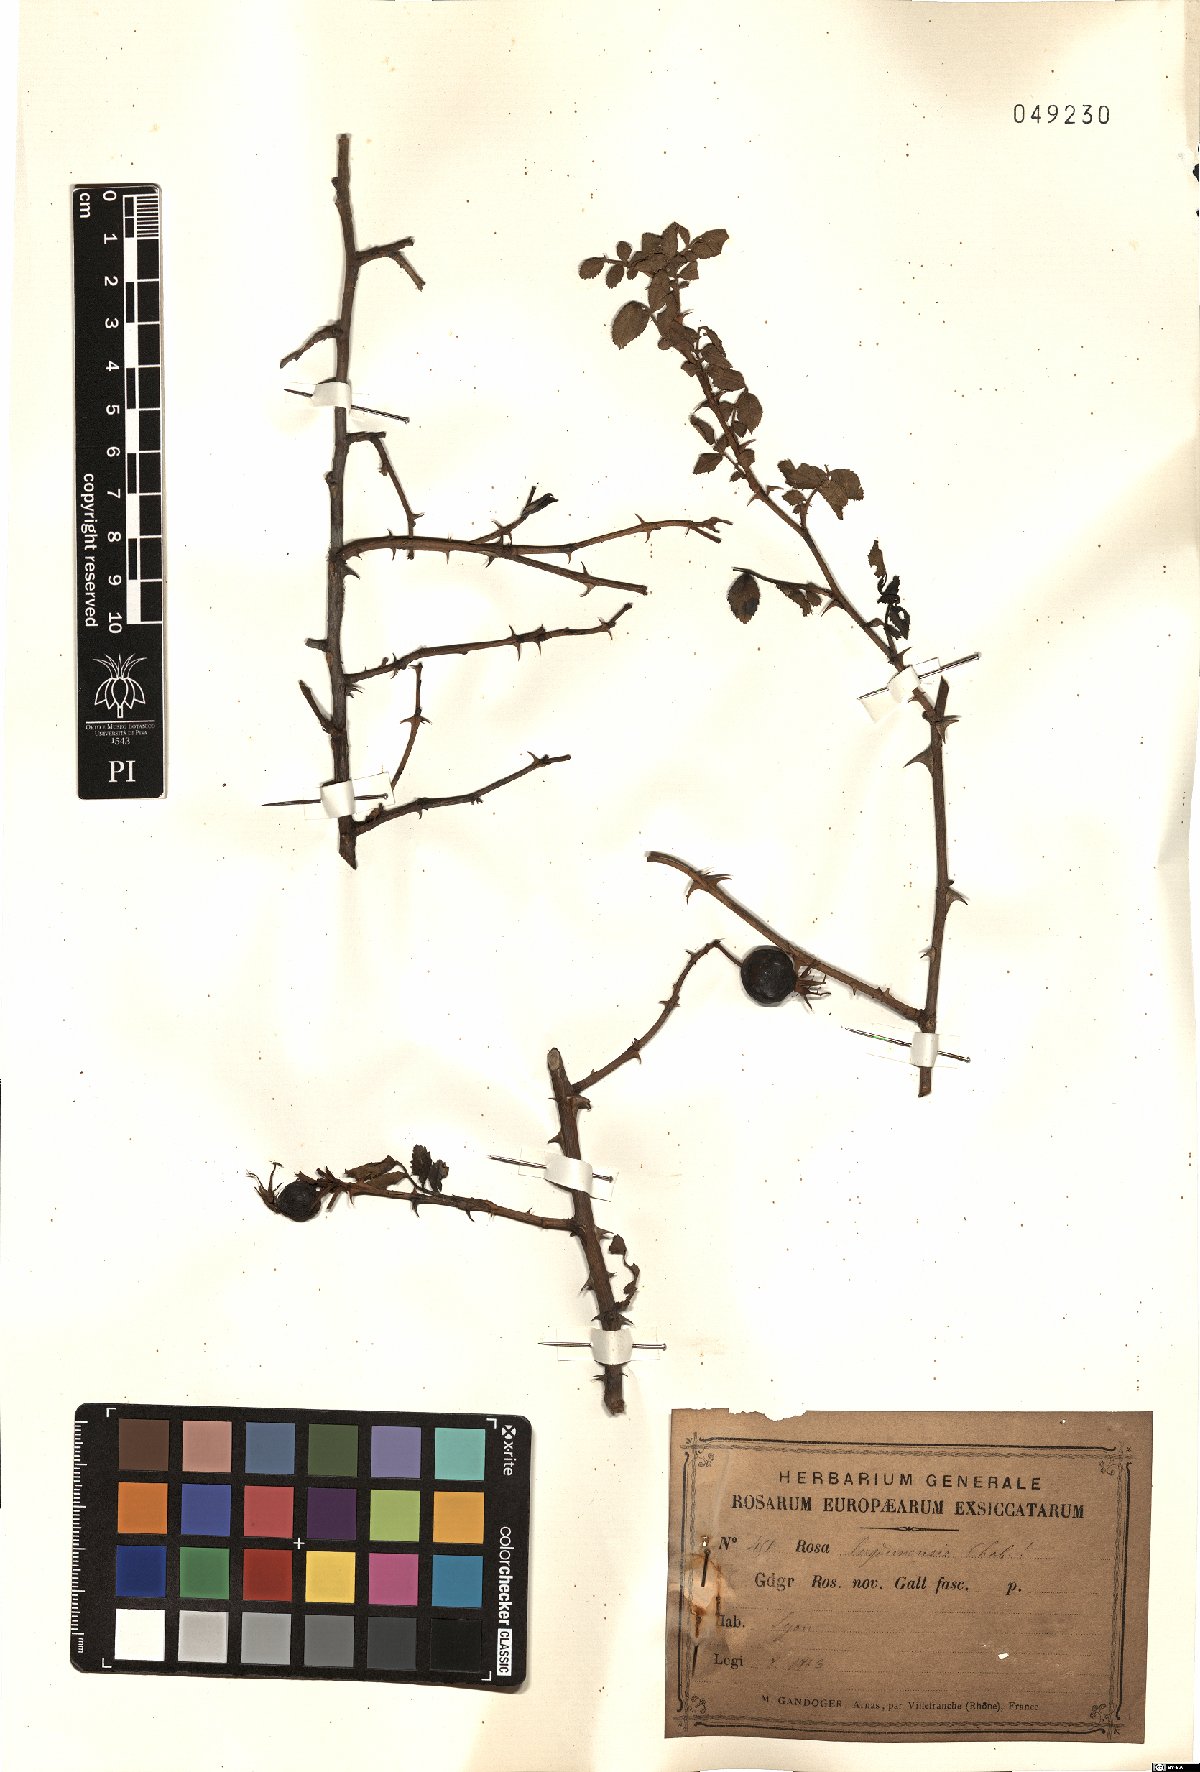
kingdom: Plantae
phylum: Tracheophyta
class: Magnoliopsida
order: Rosales
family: Rosaceae
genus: Rosa
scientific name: Rosa
